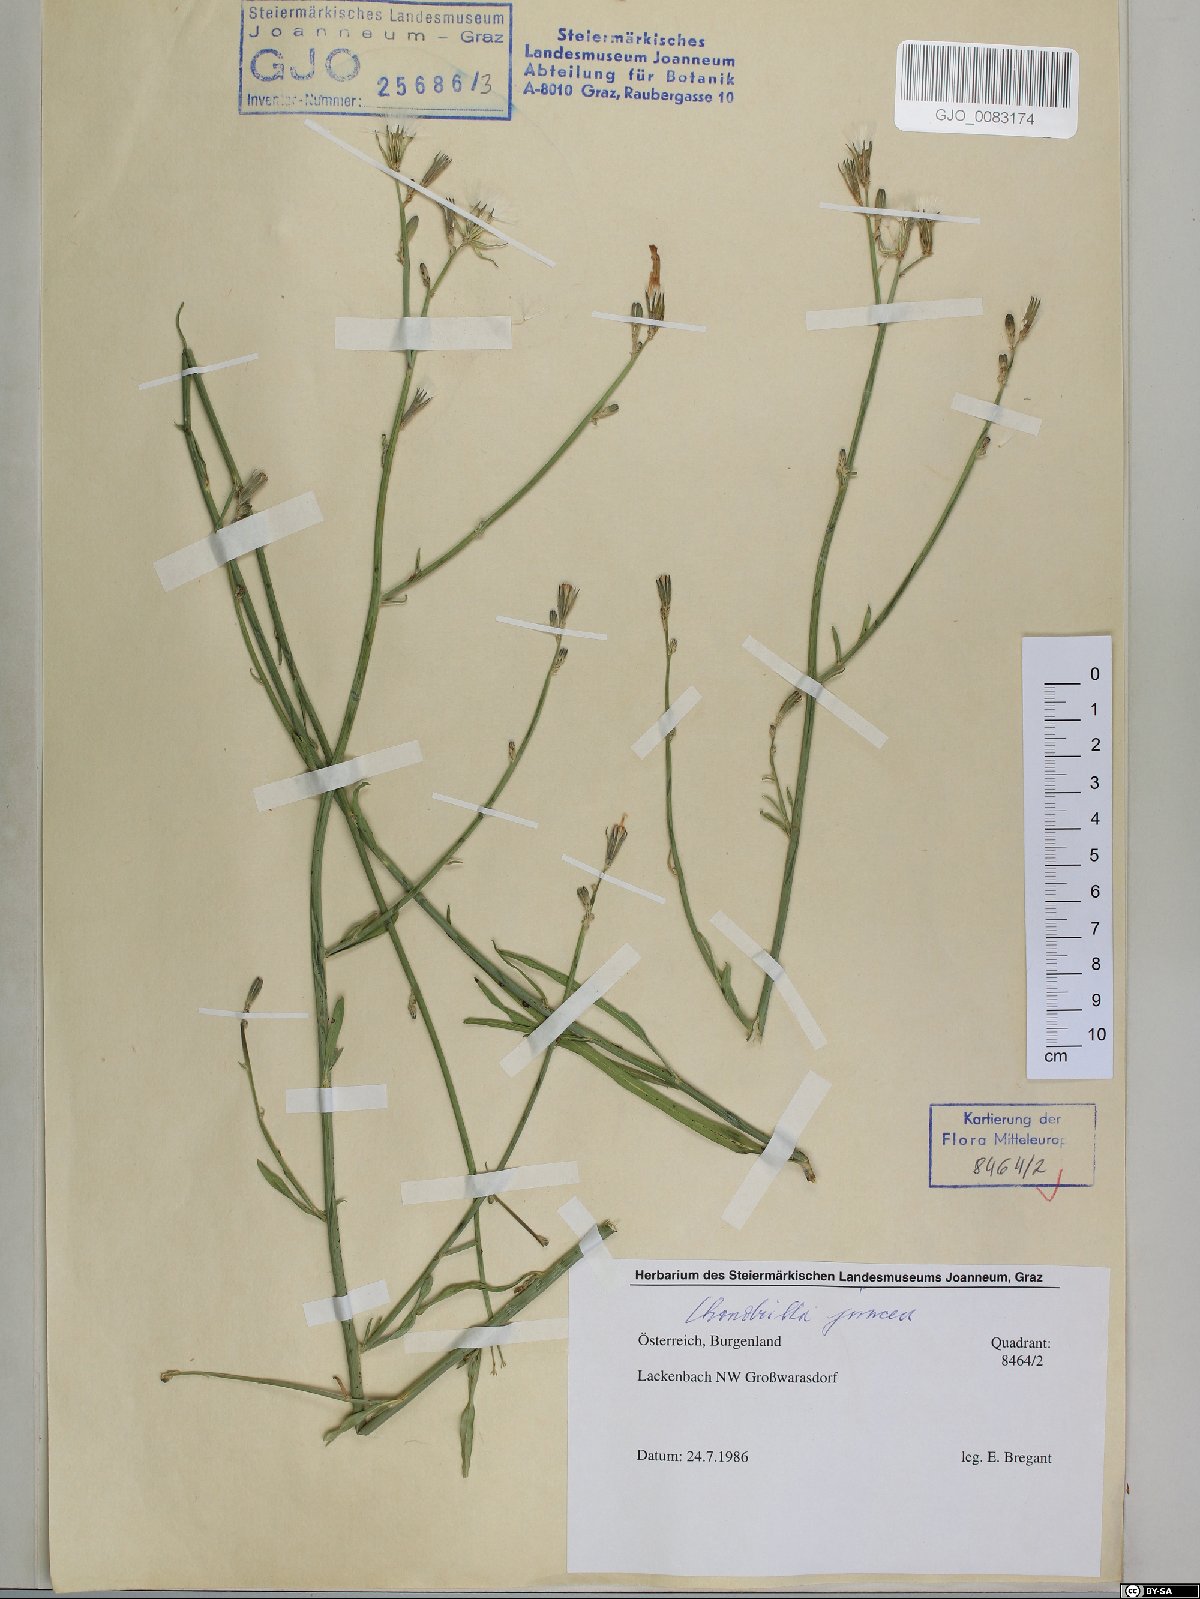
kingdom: Plantae
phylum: Tracheophyta
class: Magnoliopsida
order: Asterales
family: Asteraceae
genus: Chondrilla
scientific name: Chondrilla juncea
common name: Skeleton weed
